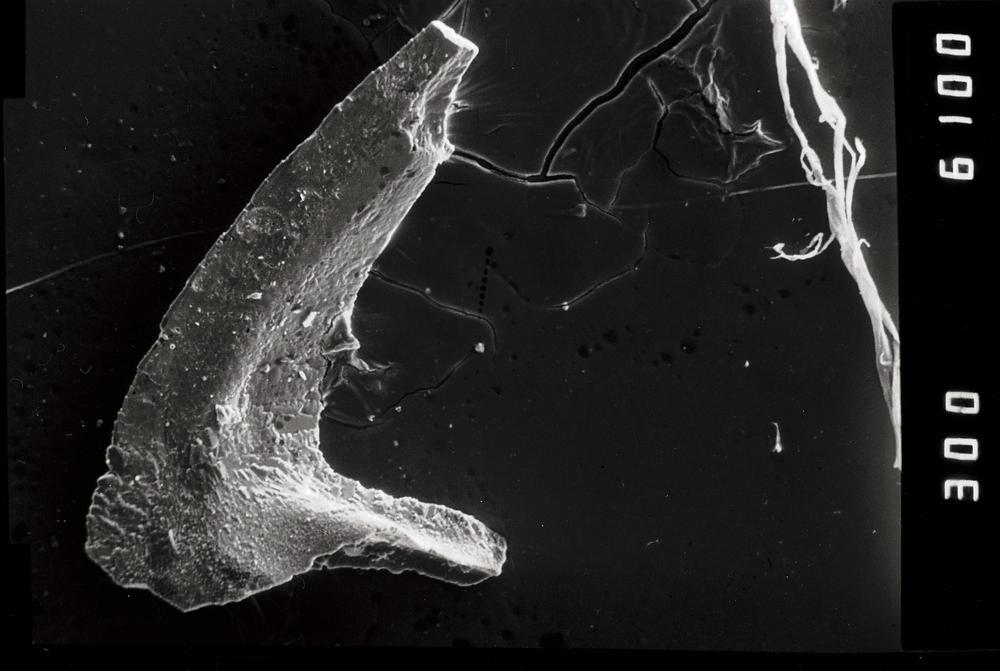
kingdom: Animalia
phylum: Chordata
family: Acodontidae
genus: Tripodus
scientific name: Tripodus
